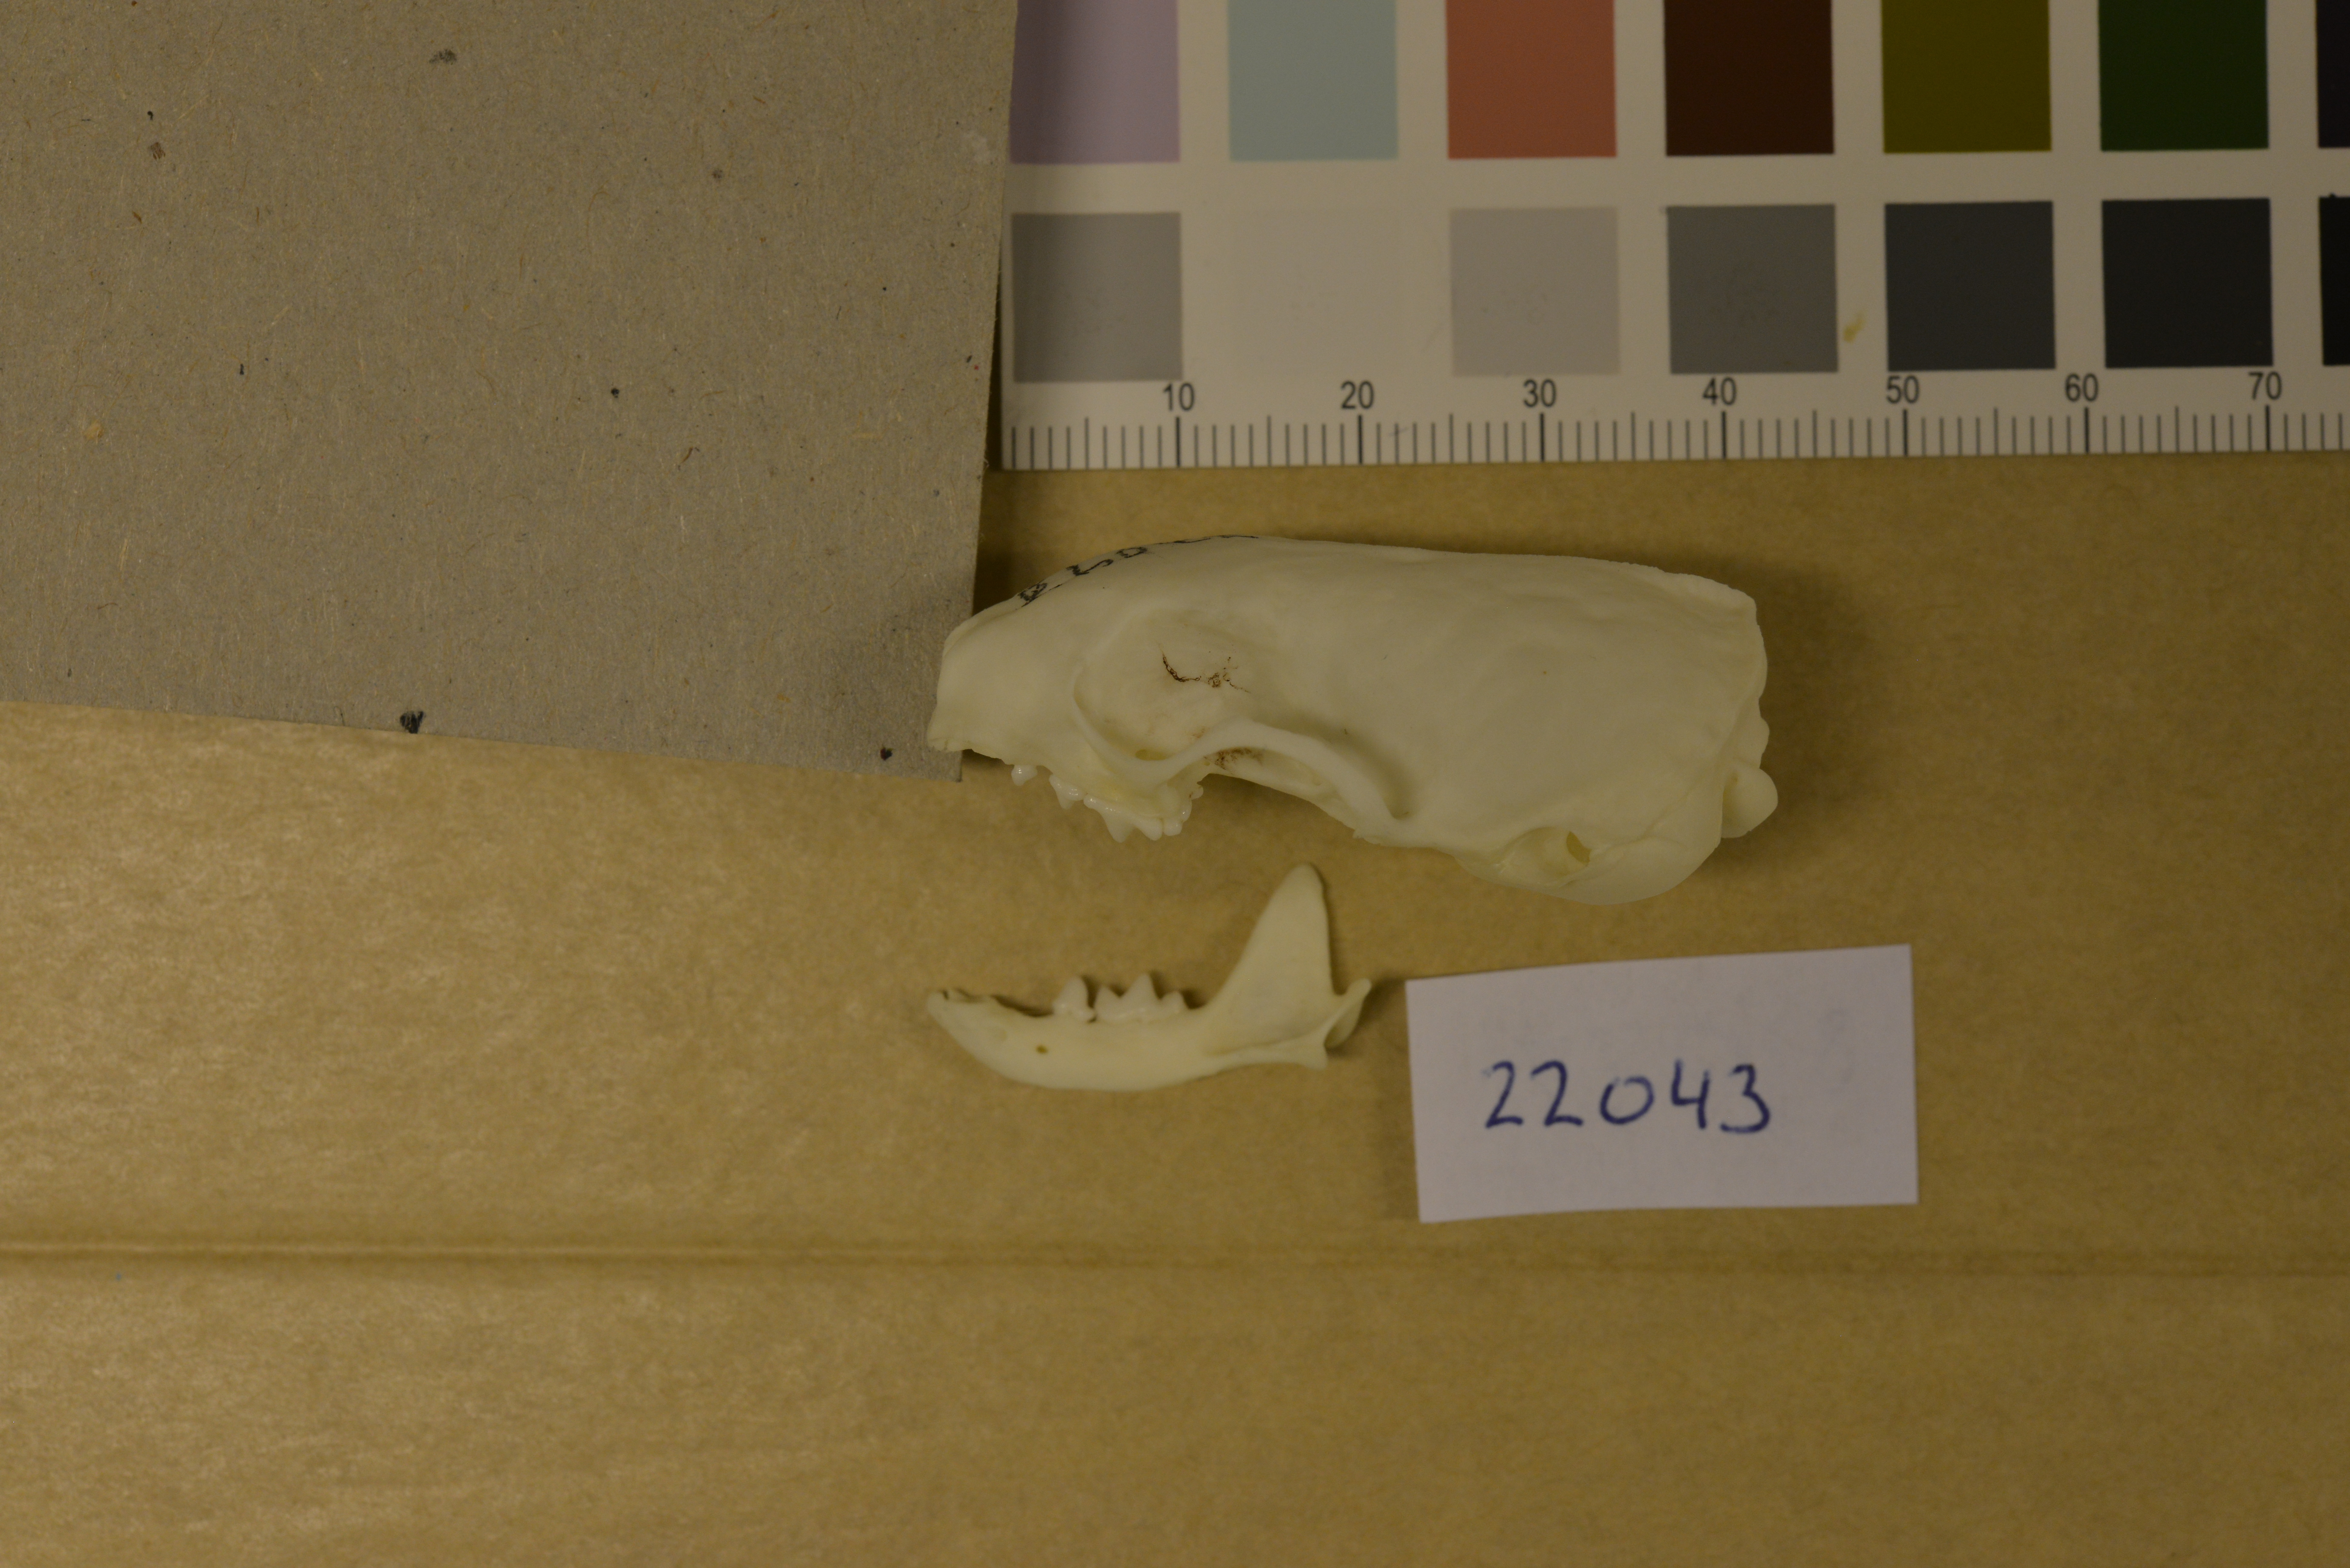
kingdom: Animalia
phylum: Chordata
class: Mammalia
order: Carnivora
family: Mustelidae
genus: Mustela
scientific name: Mustela erminea
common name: Stoat
